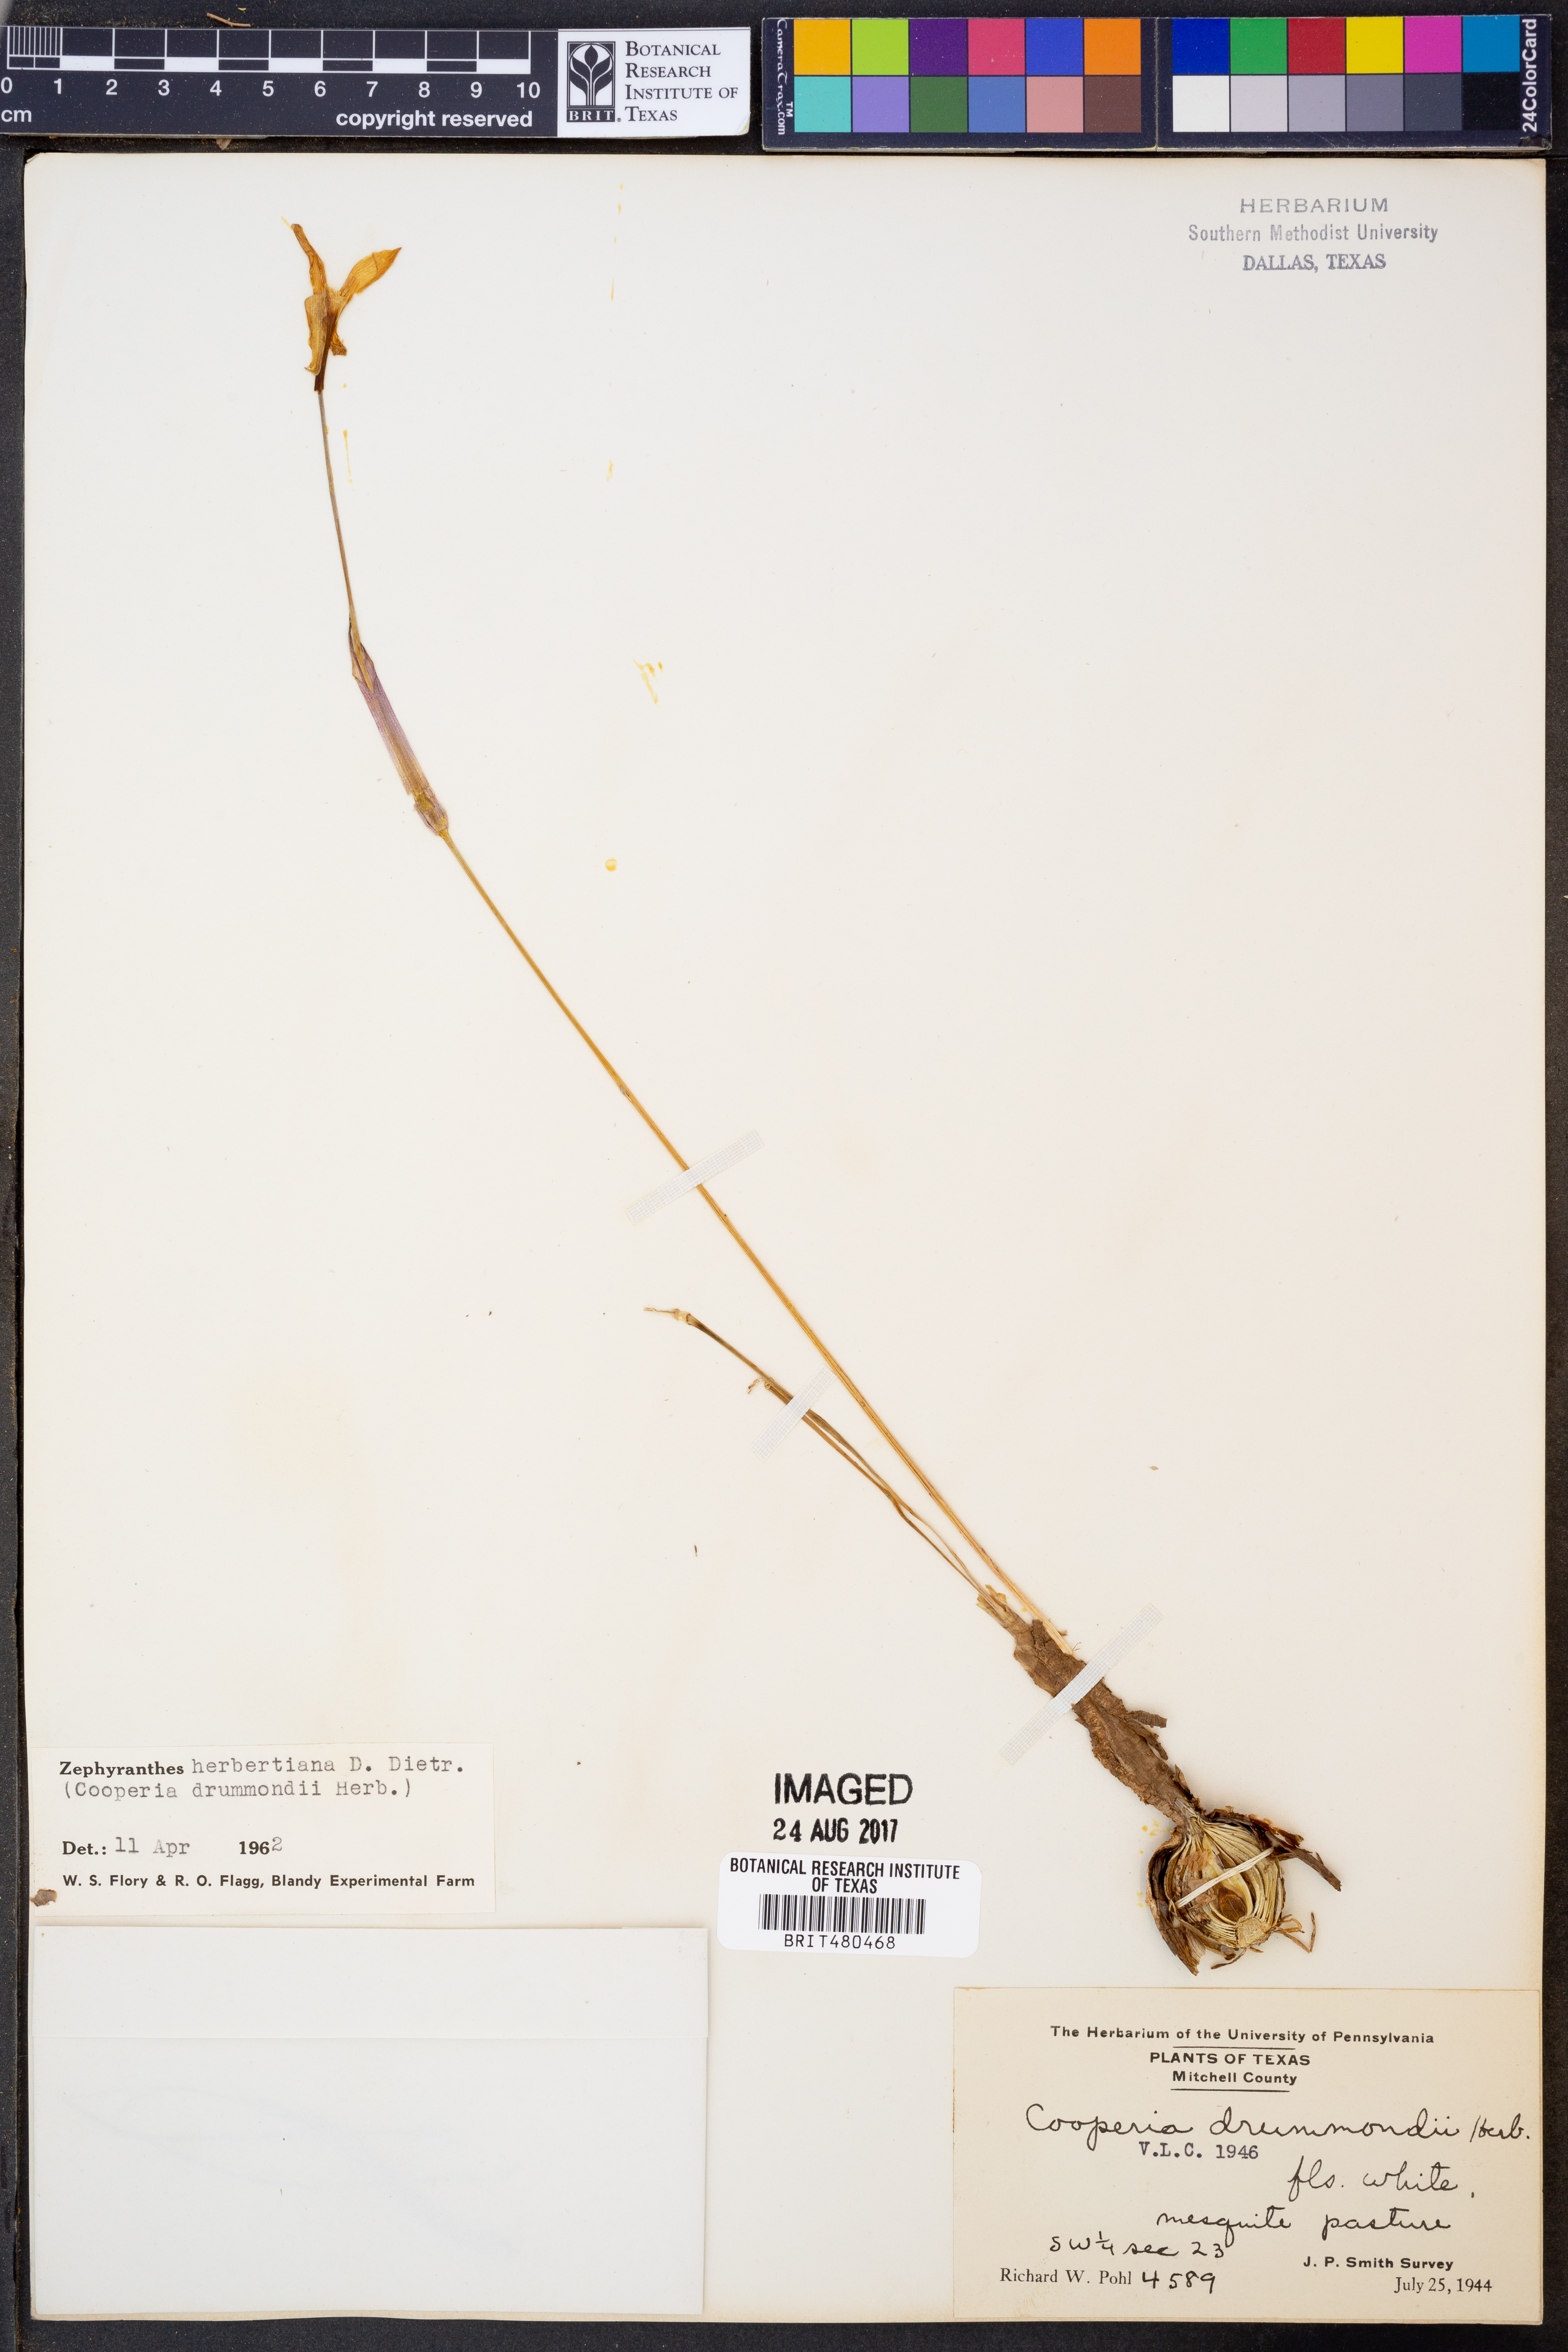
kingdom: Plantae
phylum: Tracheophyta
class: Liliopsida
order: Asparagales
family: Amaryllidaceae
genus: Zephyranthes
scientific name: Zephyranthes chlorosolen
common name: Evening rain-lily
